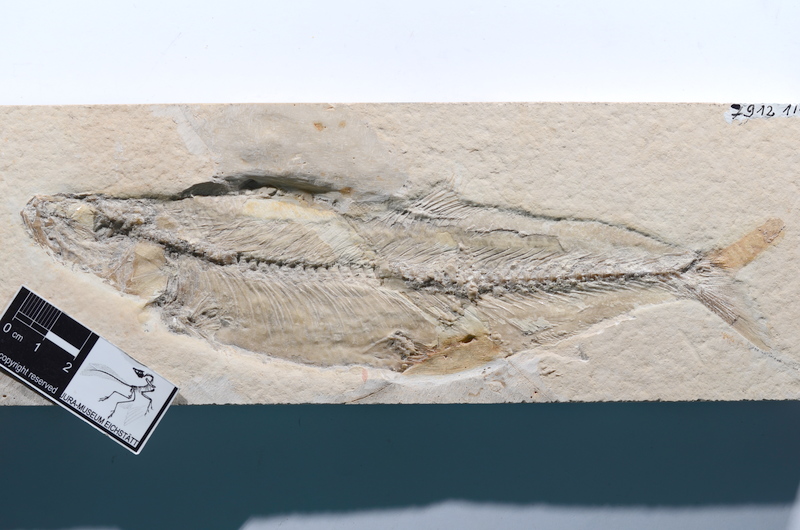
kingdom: Animalia
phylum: Chordata
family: Ascalaboidae
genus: Tharsis
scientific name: Tharsis dubius
